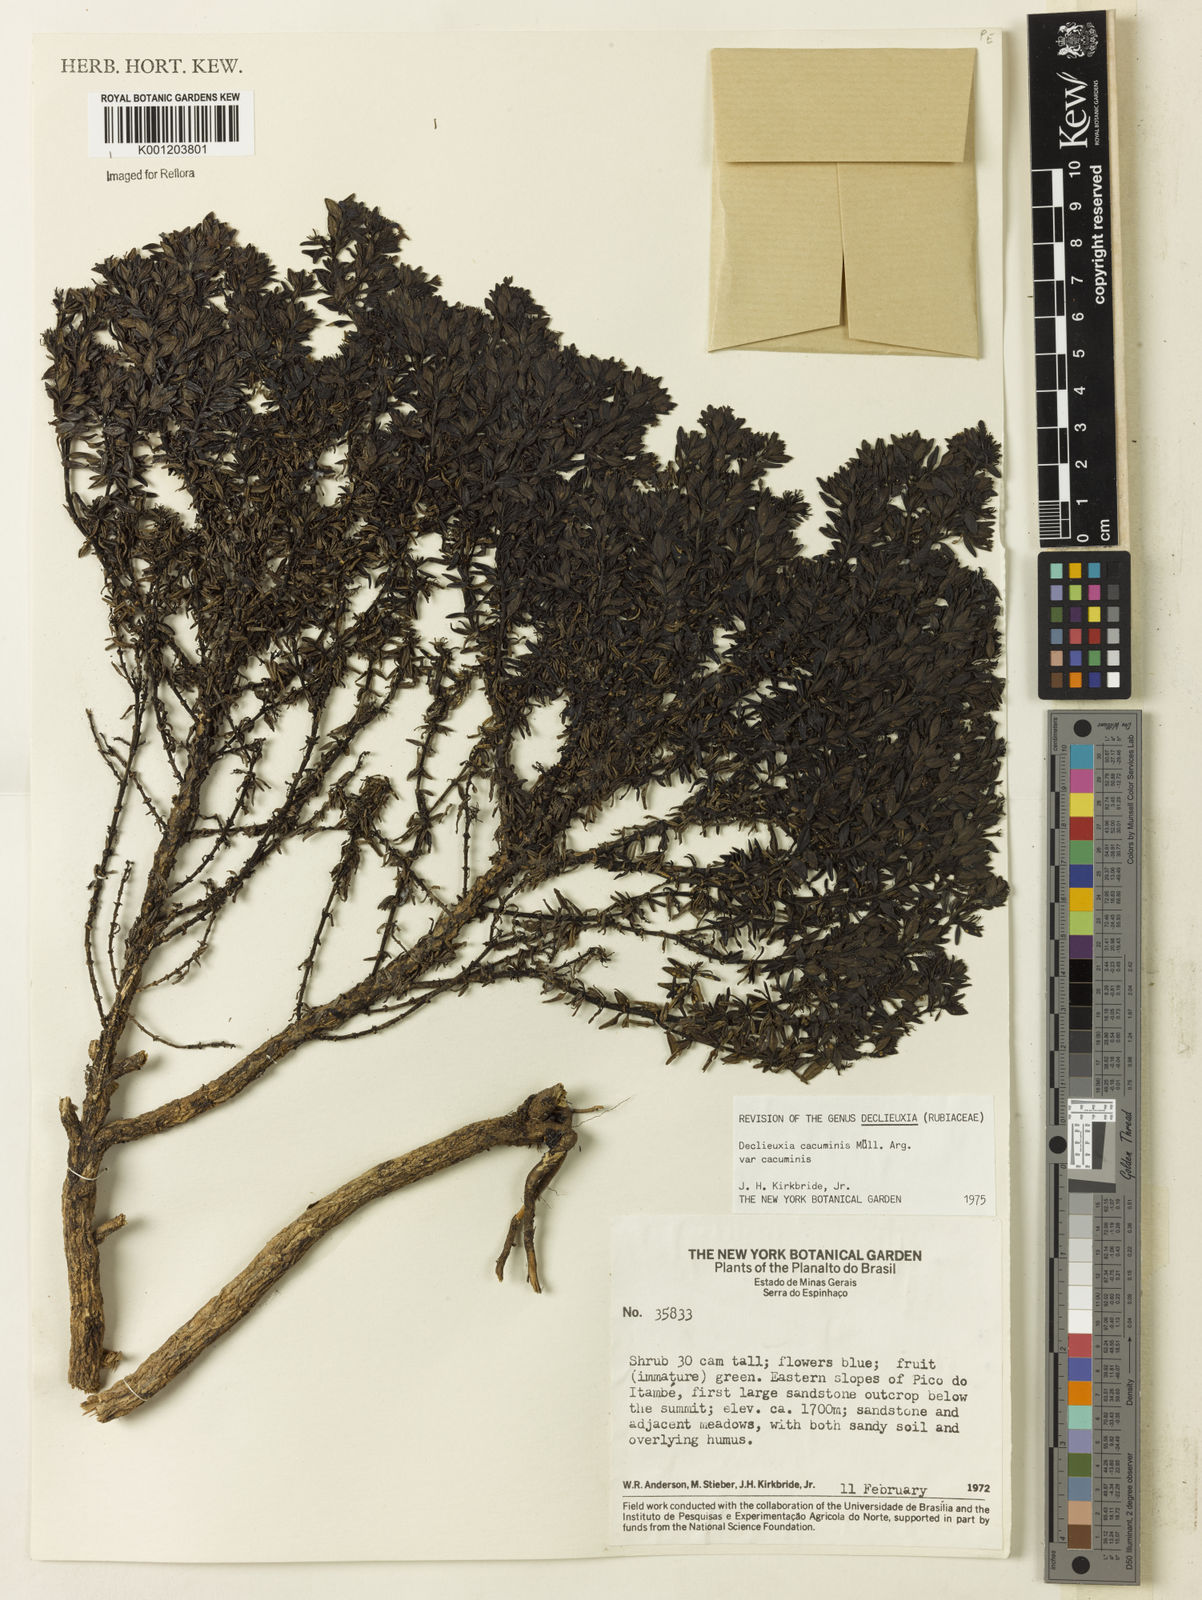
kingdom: Plantae
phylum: Tracheophyta
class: Magnoliopsida
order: Gentianales
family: Rubiaceae
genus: Declieuxia
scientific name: Declieuxia
